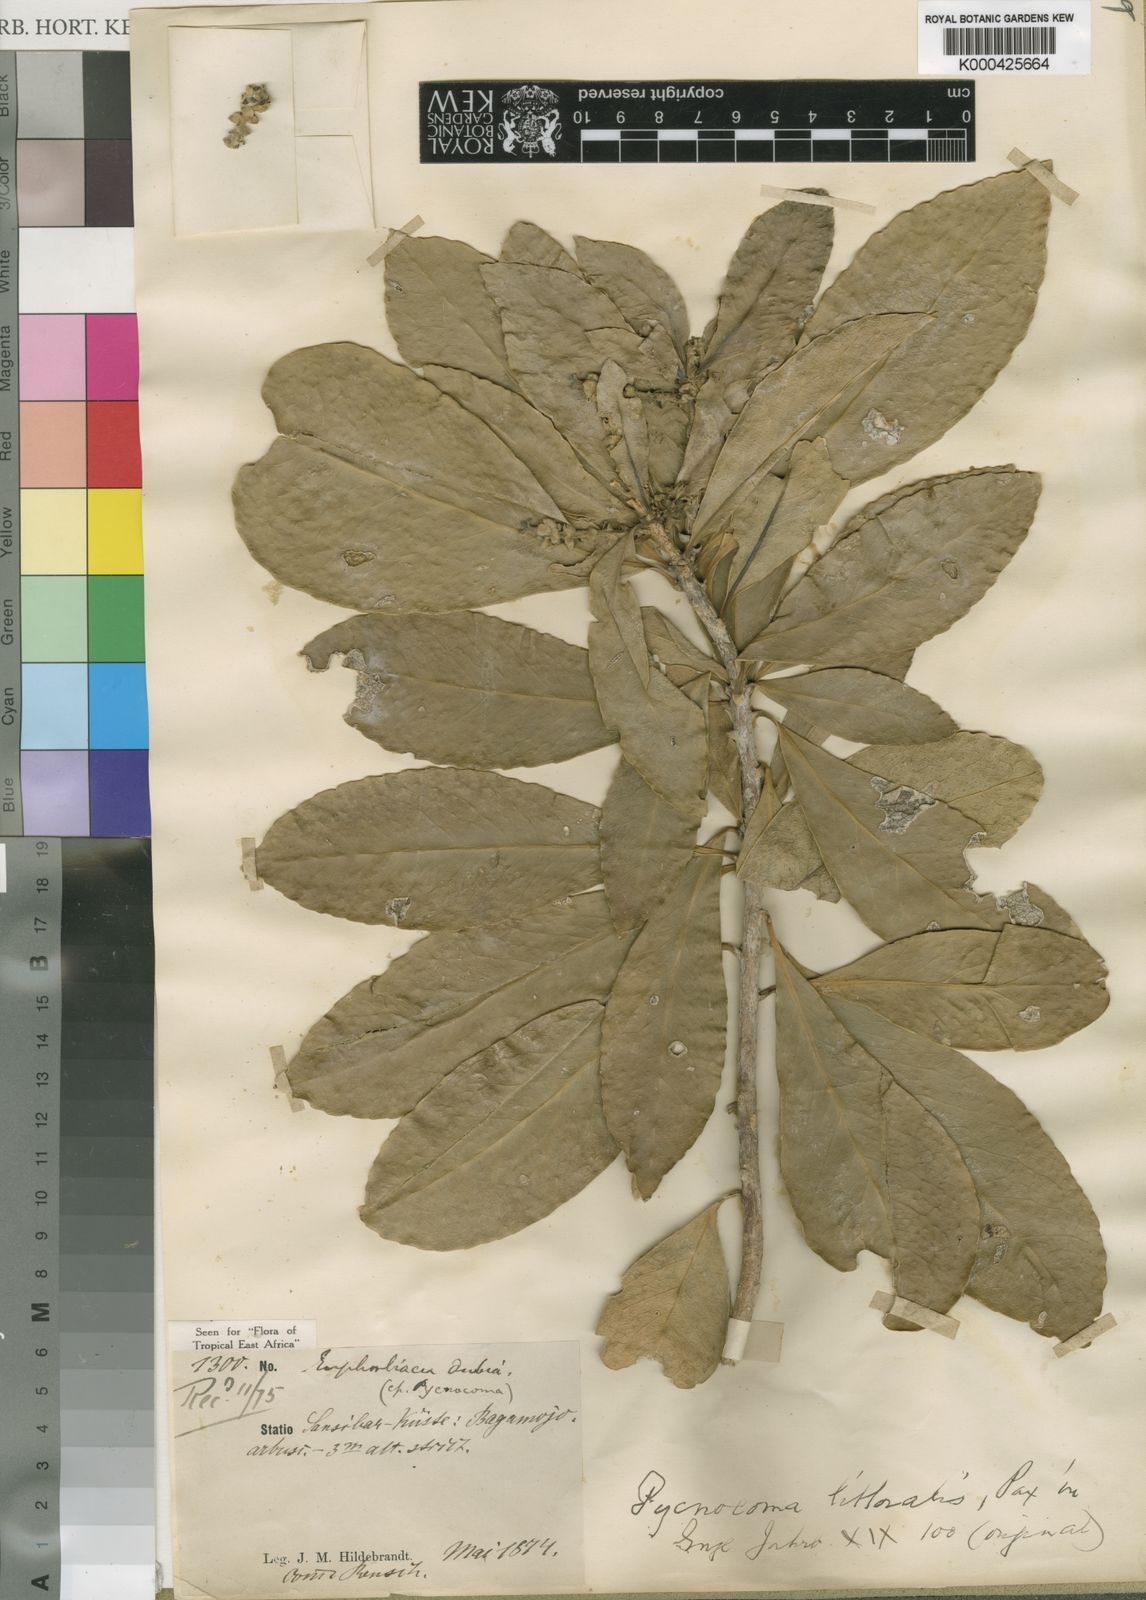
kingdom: Plantae
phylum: Tracheophyta
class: Magnoliopsida
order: Malpighiales
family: Euphorbiaceae
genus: Pycnocoma
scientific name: Pycnocoma littoralis
